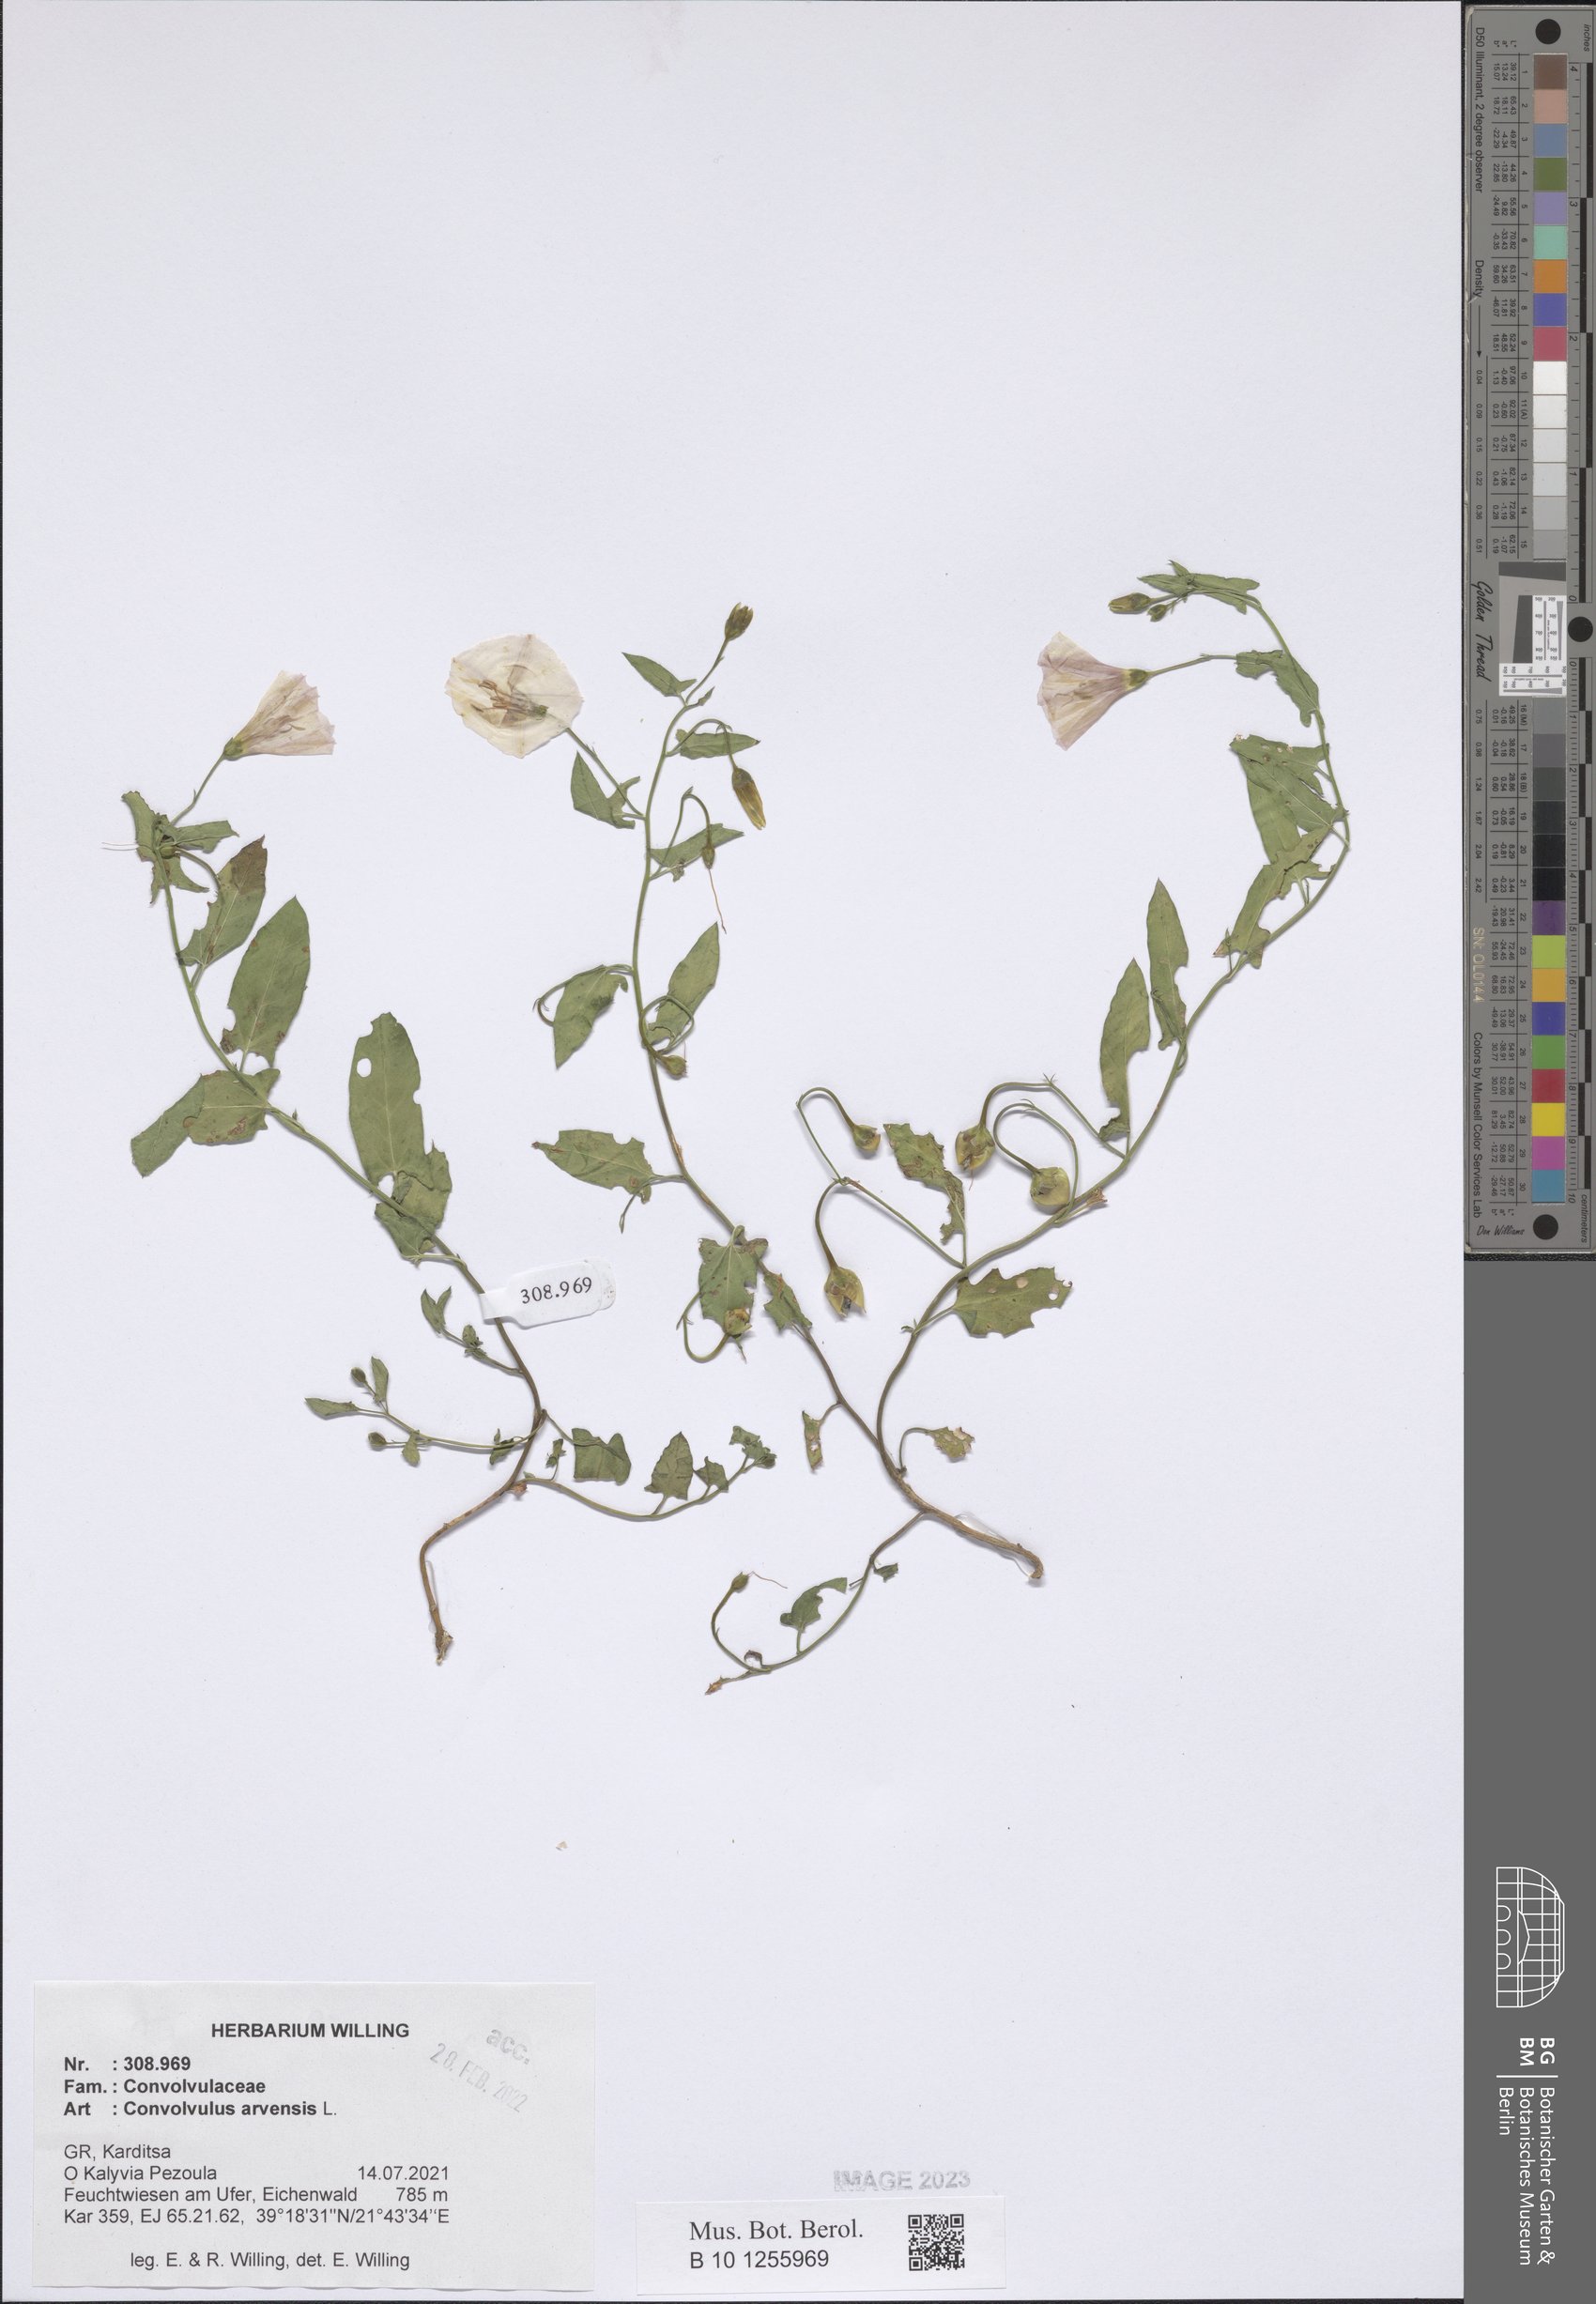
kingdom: Plantae
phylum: Tracheophyta
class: Magnoliopsida
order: Solanales
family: Convolvulaceae
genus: Convolvulus
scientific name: Convolvulus arvensis
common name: Field bindweed
